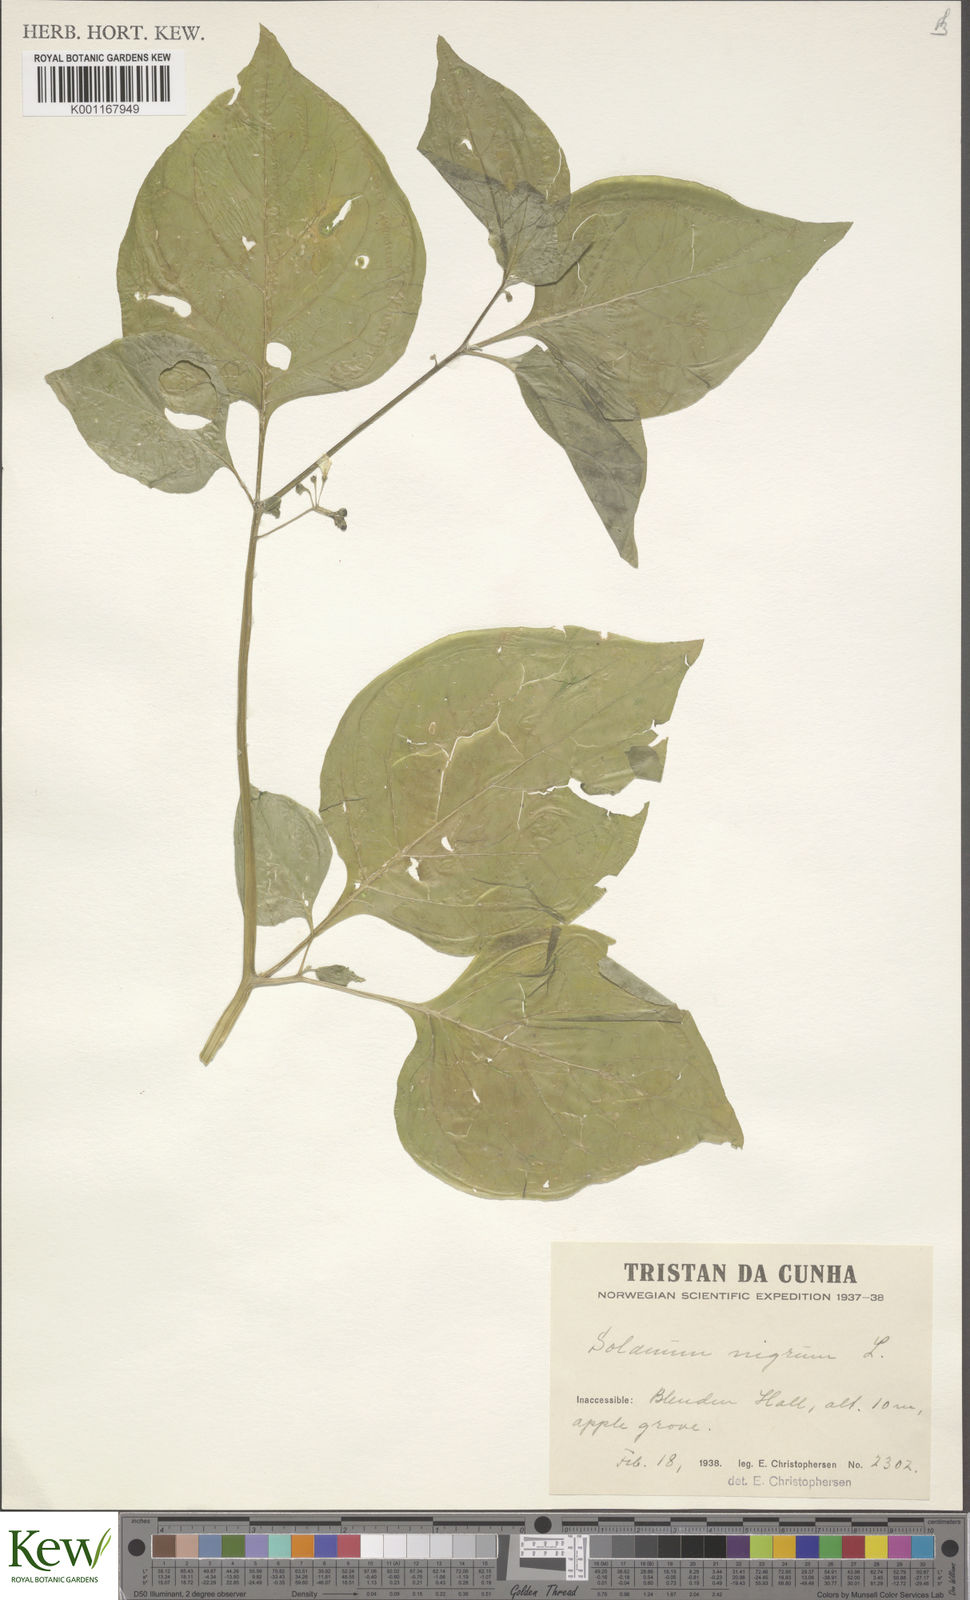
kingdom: Plantae
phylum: Tracheophyta
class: Magnoliopsida
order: Solanales
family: Solanaceae
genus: Solanum
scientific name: Solanum nigrum
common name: Black nightshade
